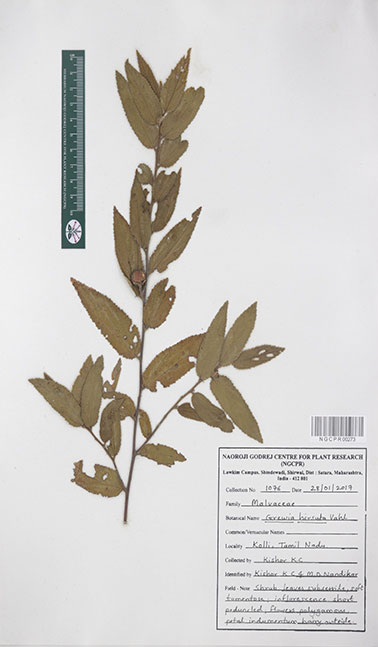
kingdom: Plantae
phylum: Tracheophyta
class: Magnoliopsida
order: Malvales
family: Malvaceae
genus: Grewia
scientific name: Grewia hirsuta
